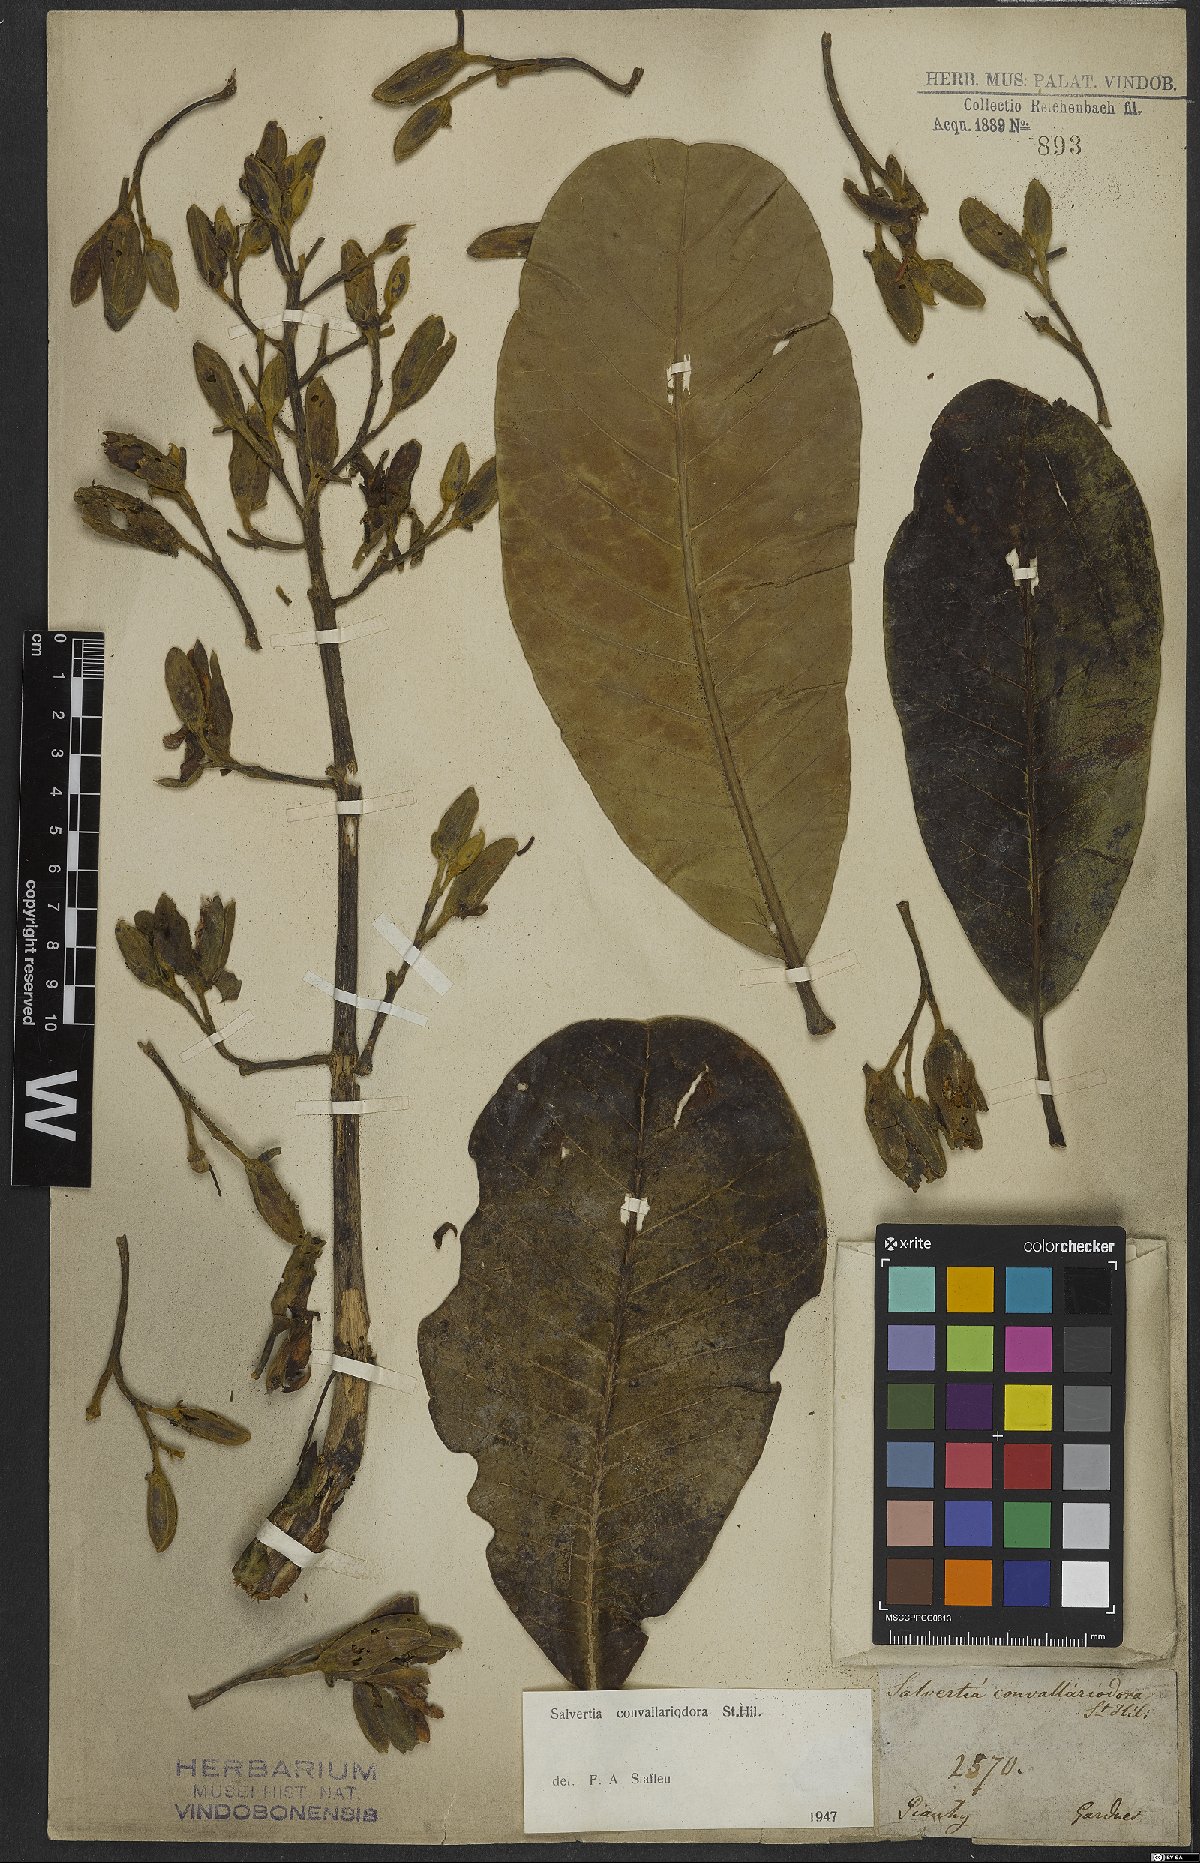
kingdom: Plantae
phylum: Tracheophyta
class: Magnoliopsida
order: Myrtales
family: Vochysiaceae
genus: Salvertia
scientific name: Salvertia convallariodora
